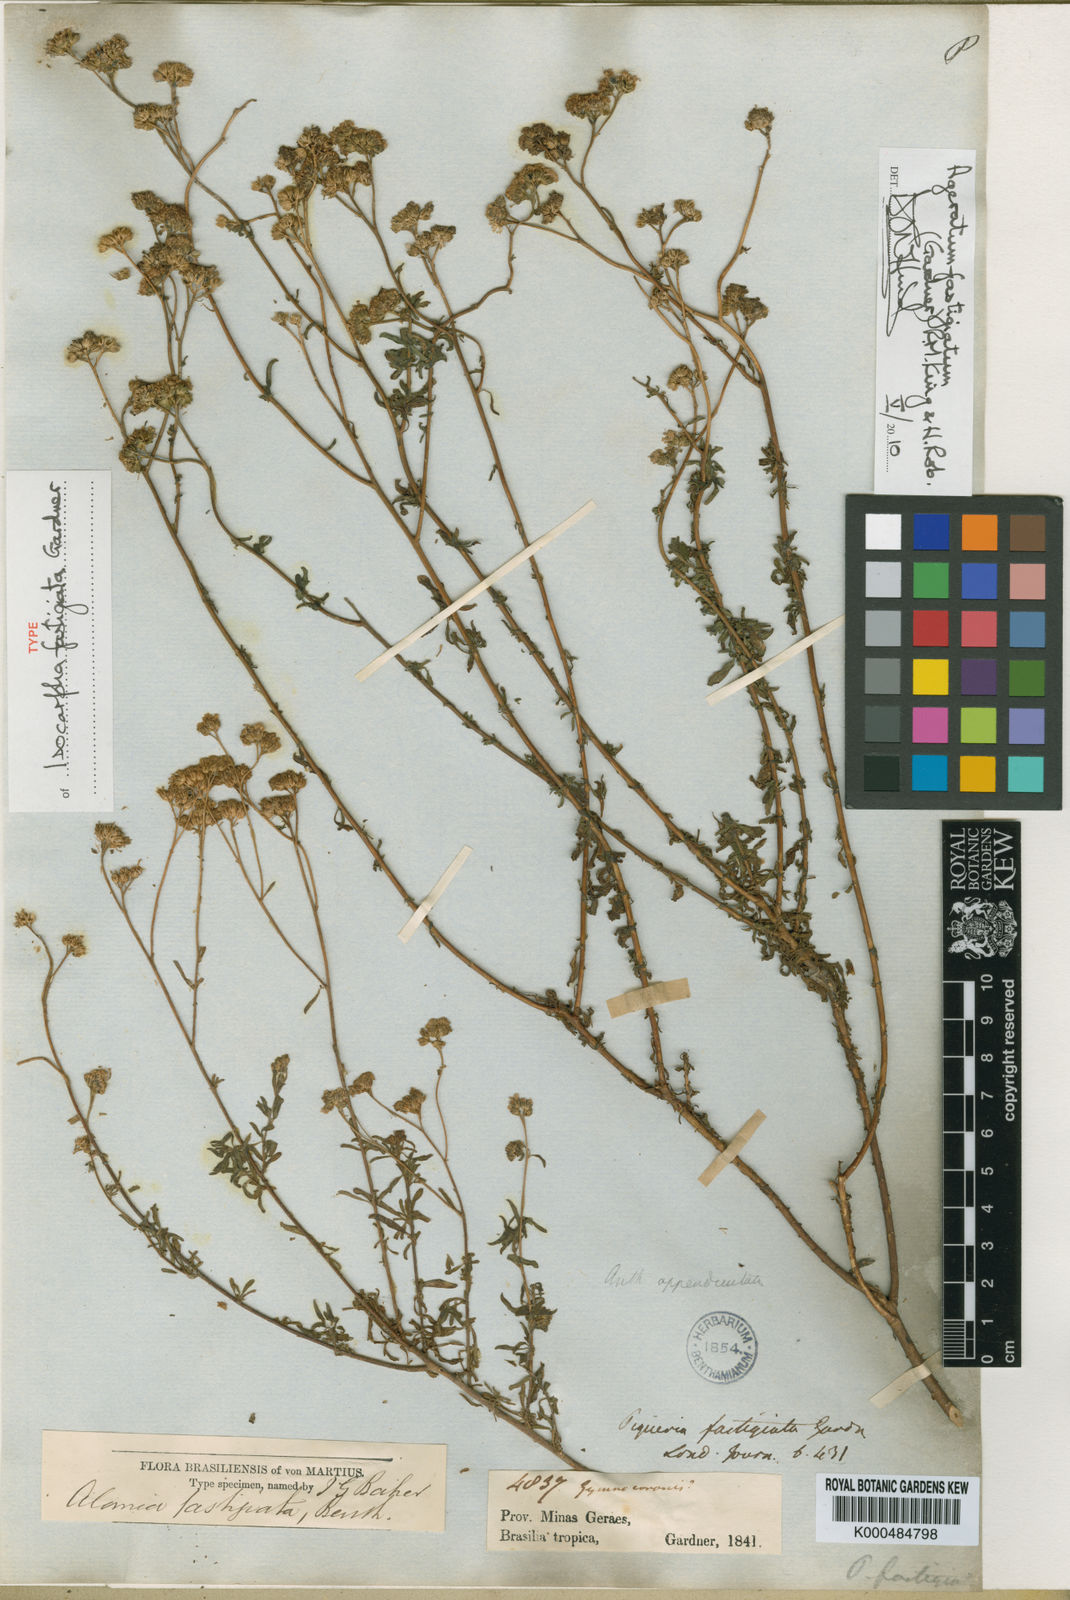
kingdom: Plantae
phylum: Tracheophyta
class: Magnoliopsida
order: Asterales
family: Asteraceae
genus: Ageratum
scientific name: Ageratum fastigiatum
